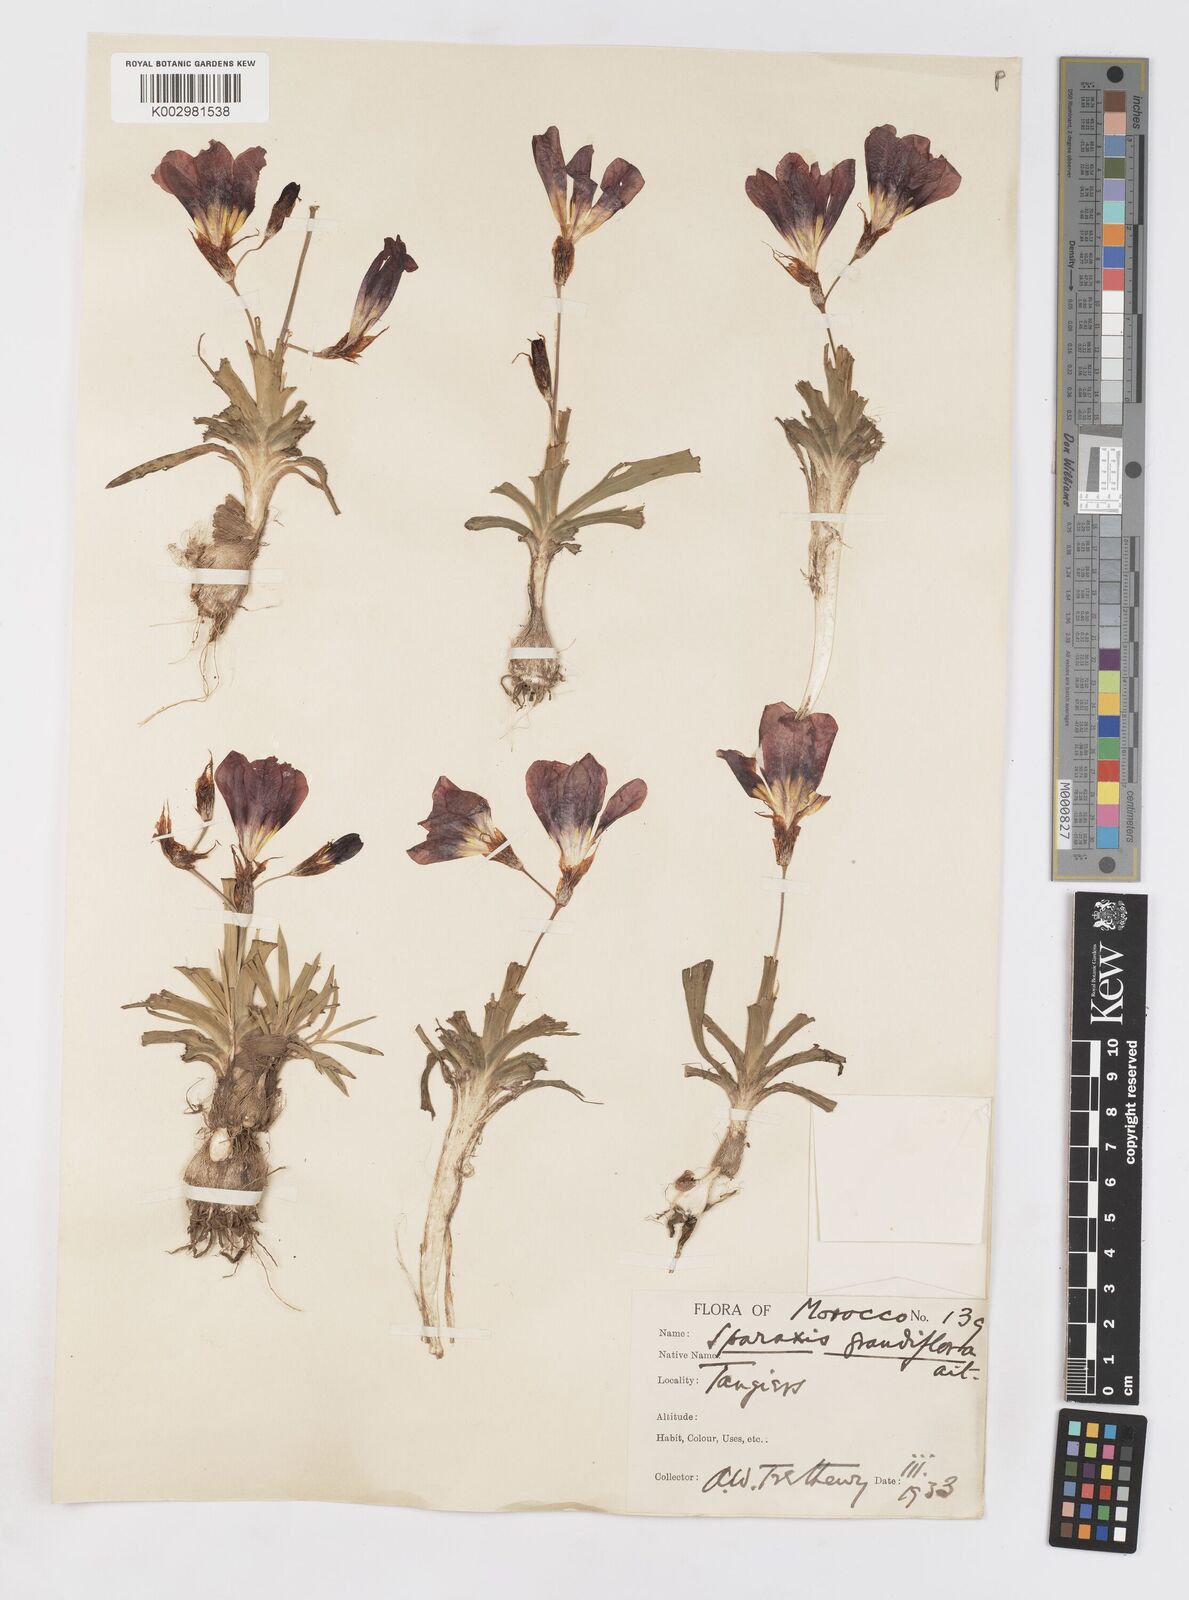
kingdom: Plantae
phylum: Tracheophyta
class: Liliopsida
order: Asparagales
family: Iridaceae
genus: Sparaxis
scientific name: Sparaxis
